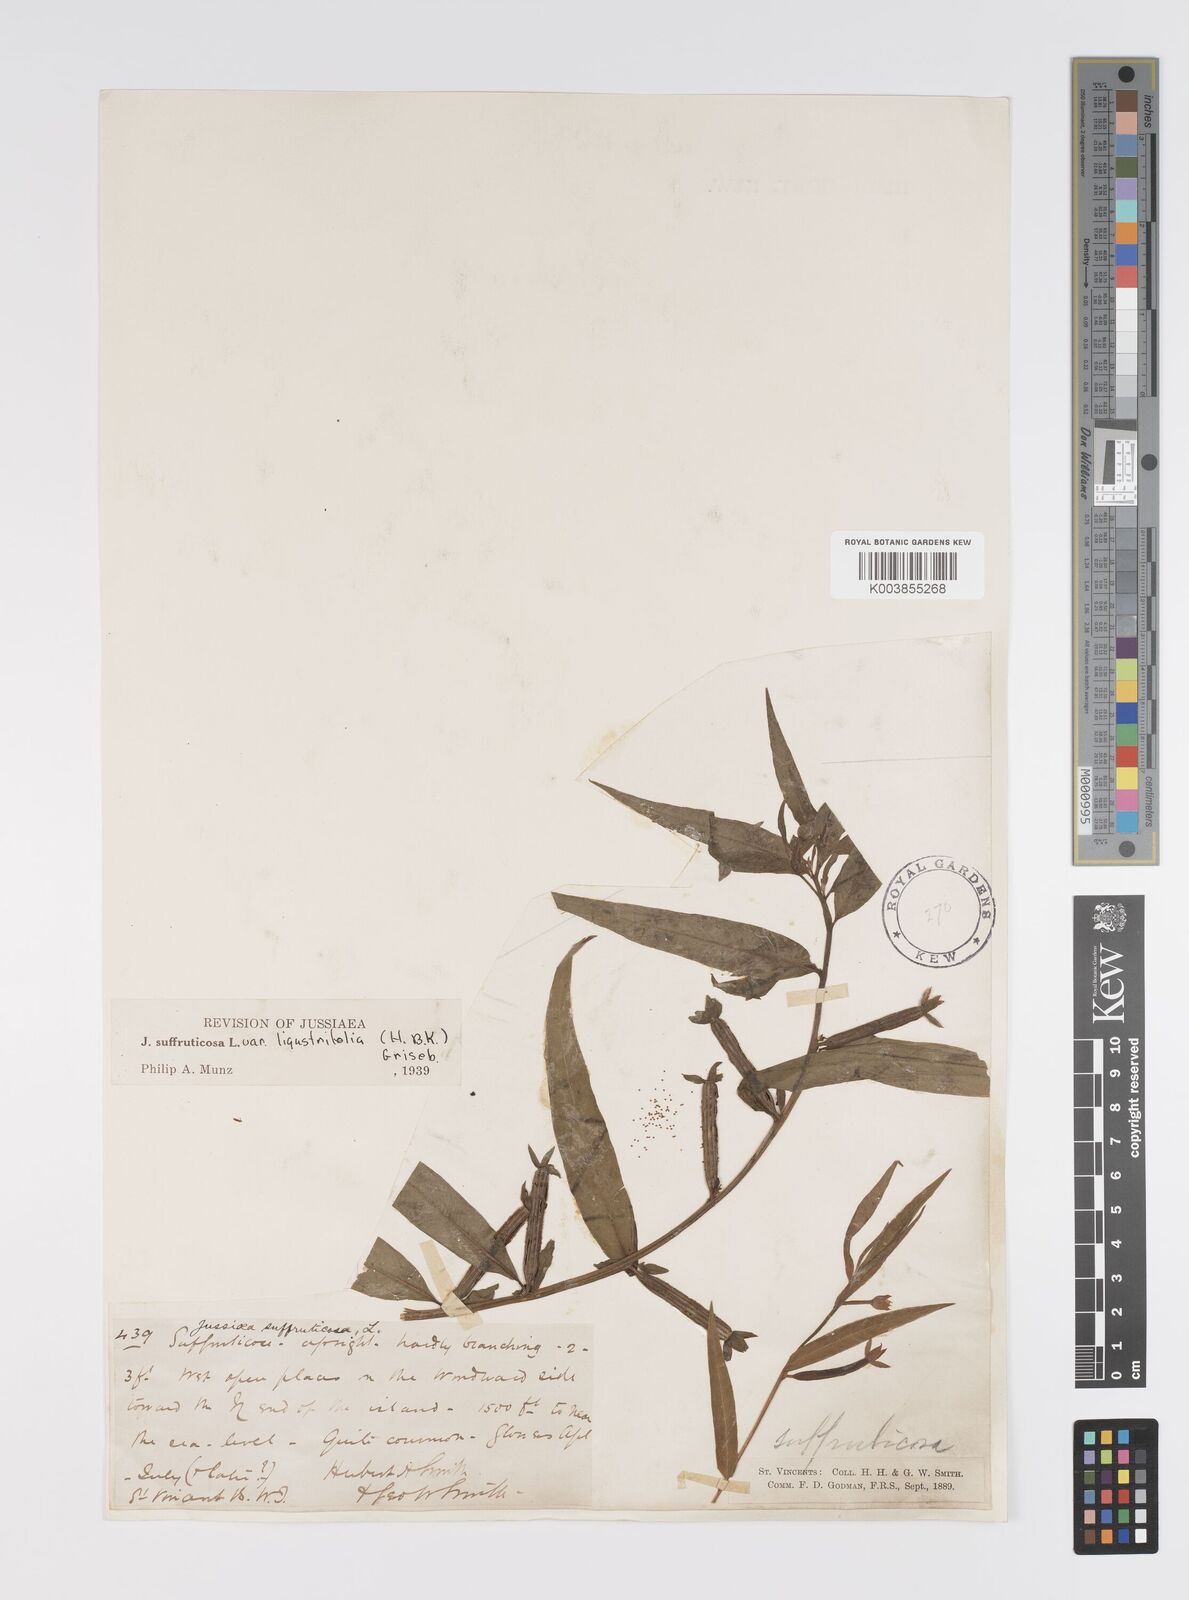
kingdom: Plantae
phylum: Tracheophyta
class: Magnoliopsida
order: Myrtales
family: Onagraceae
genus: Ludwigia
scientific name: Ludwigia octovalvis
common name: Water-primrose
